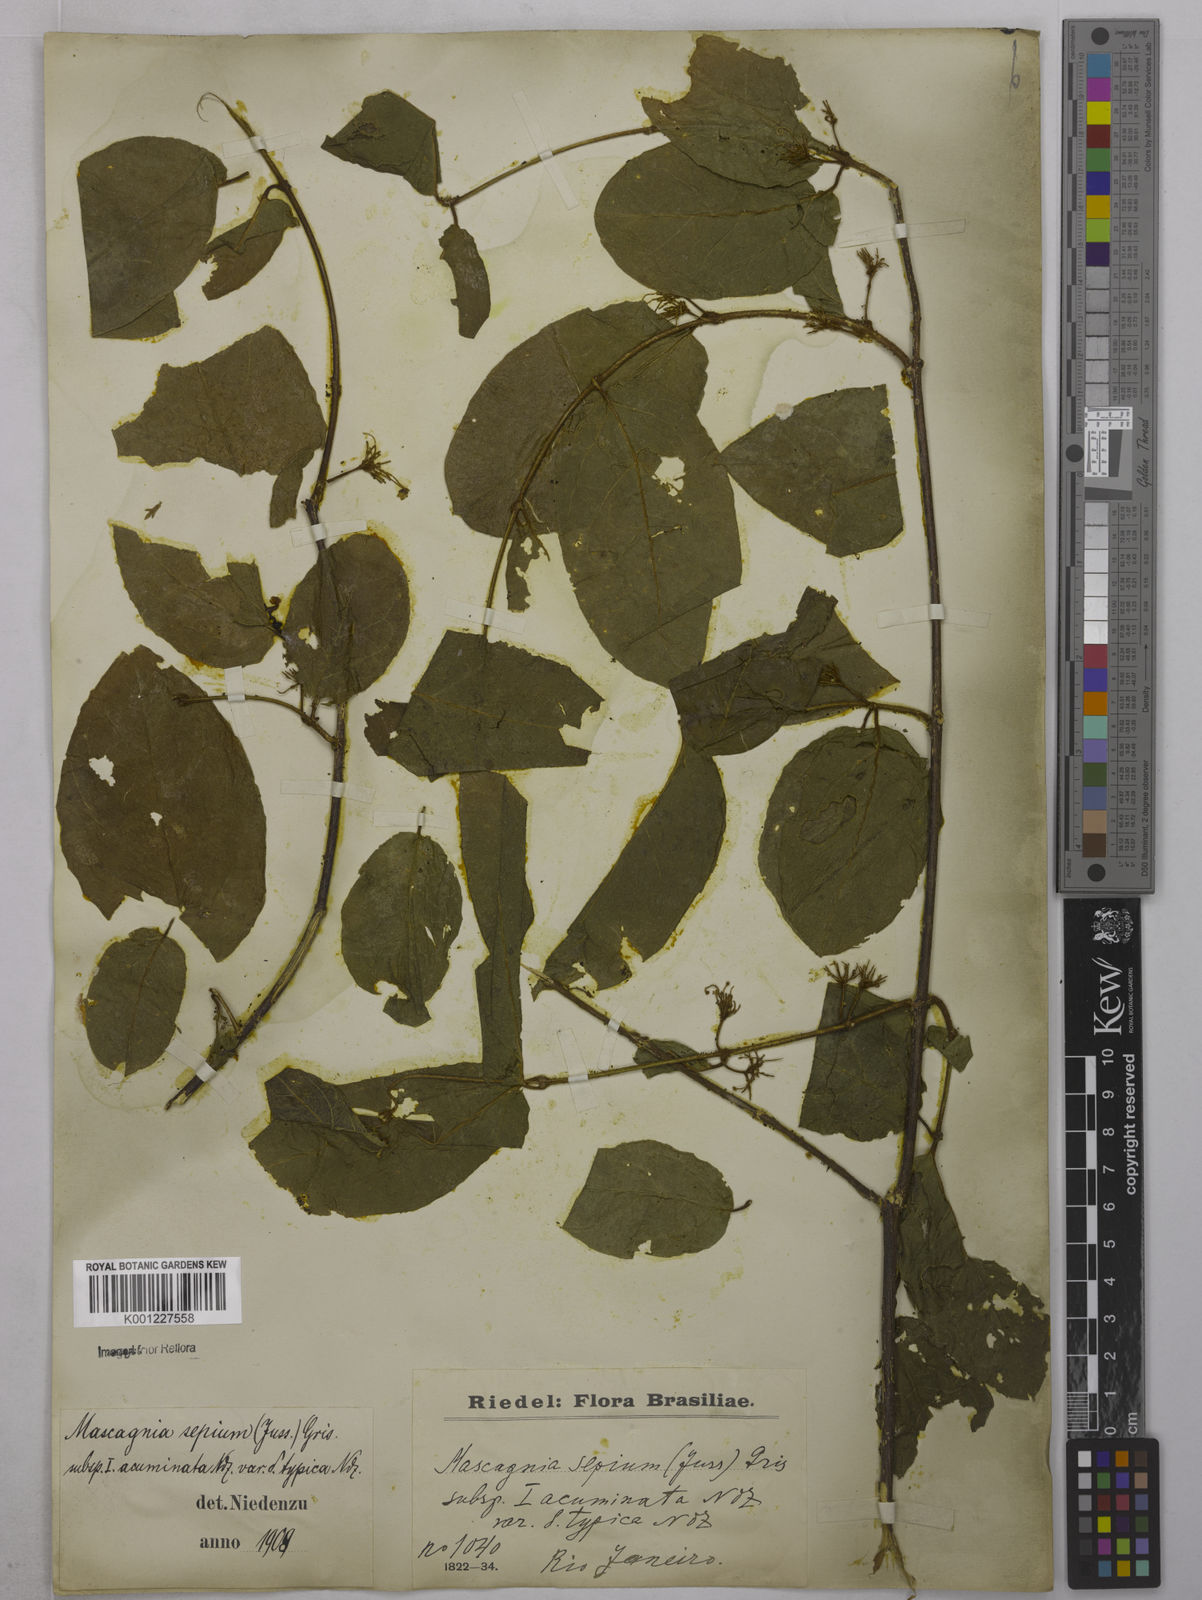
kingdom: Plantae
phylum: Tracheophyta
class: Magnoliopsida
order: Malpighiales
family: Malpighiaceae
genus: Mascagnia
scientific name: Mascagnia sepium
